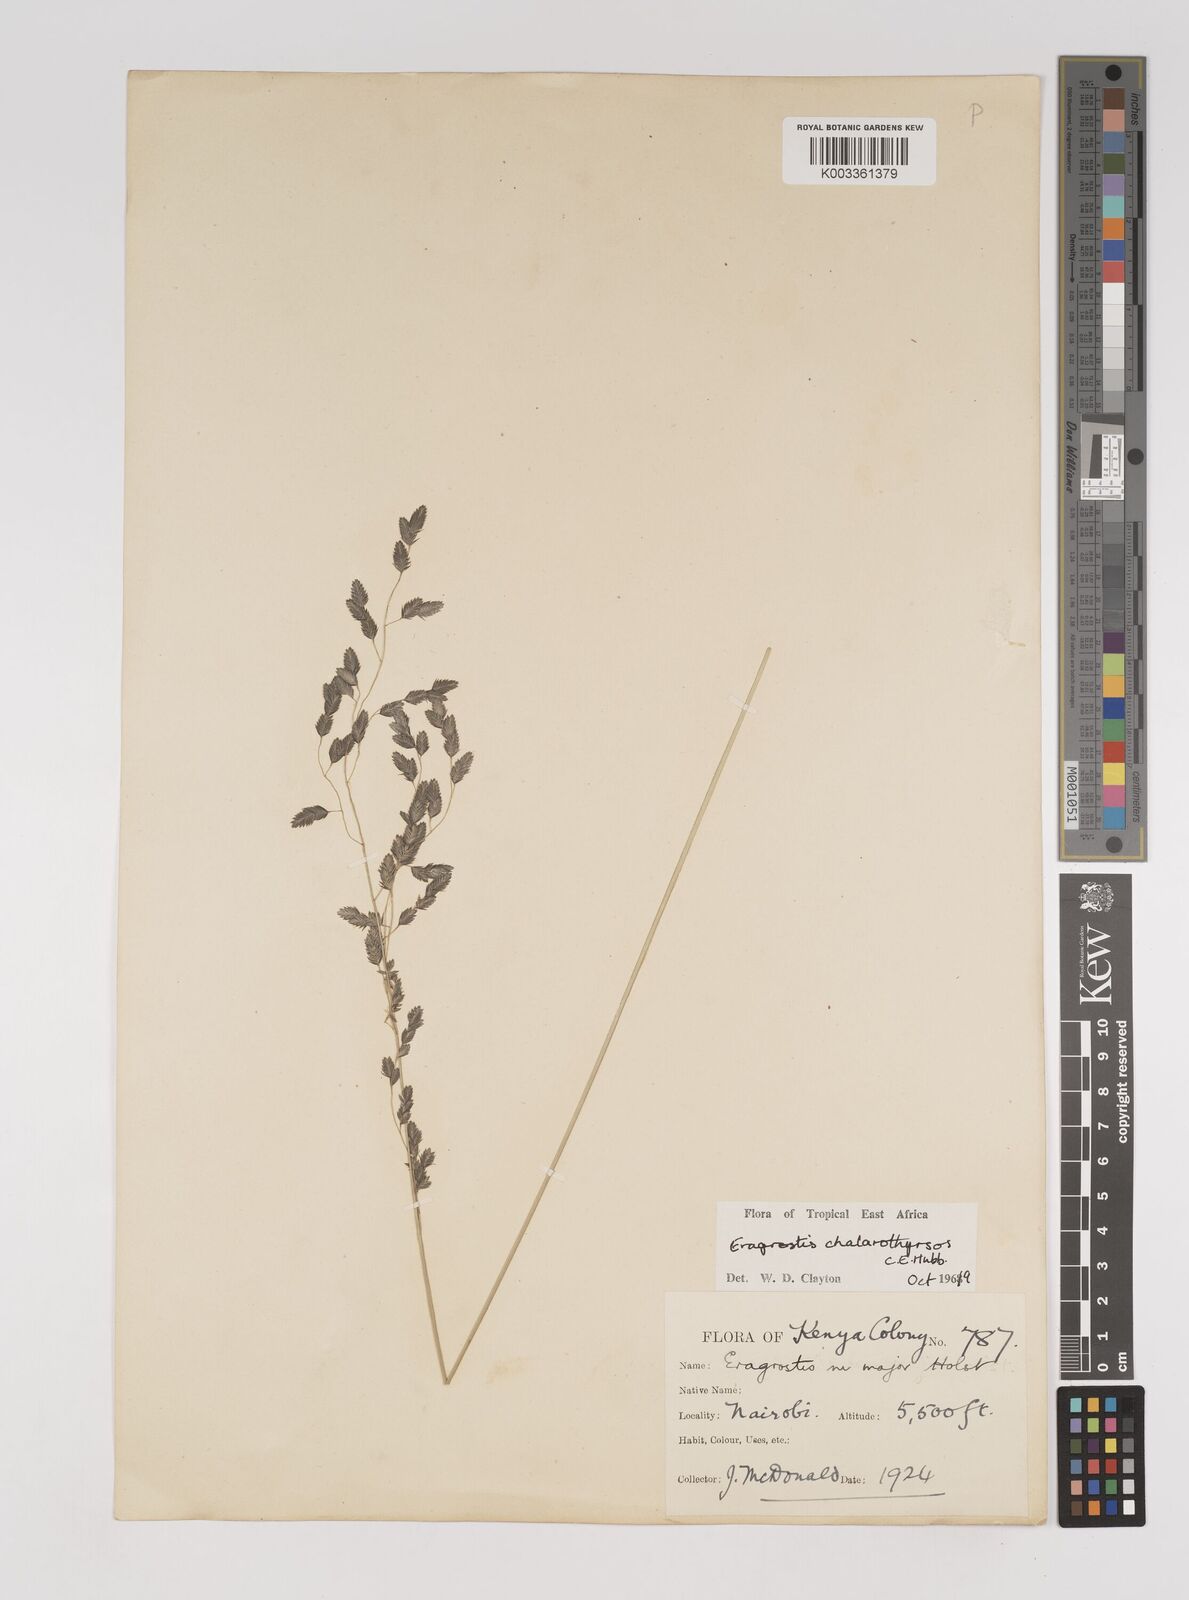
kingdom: Plantae
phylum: Tracheophyta
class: Liliopsida
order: Poales
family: Poaceae
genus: Eragrostis
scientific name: Eragrostis chalarothyrsos
